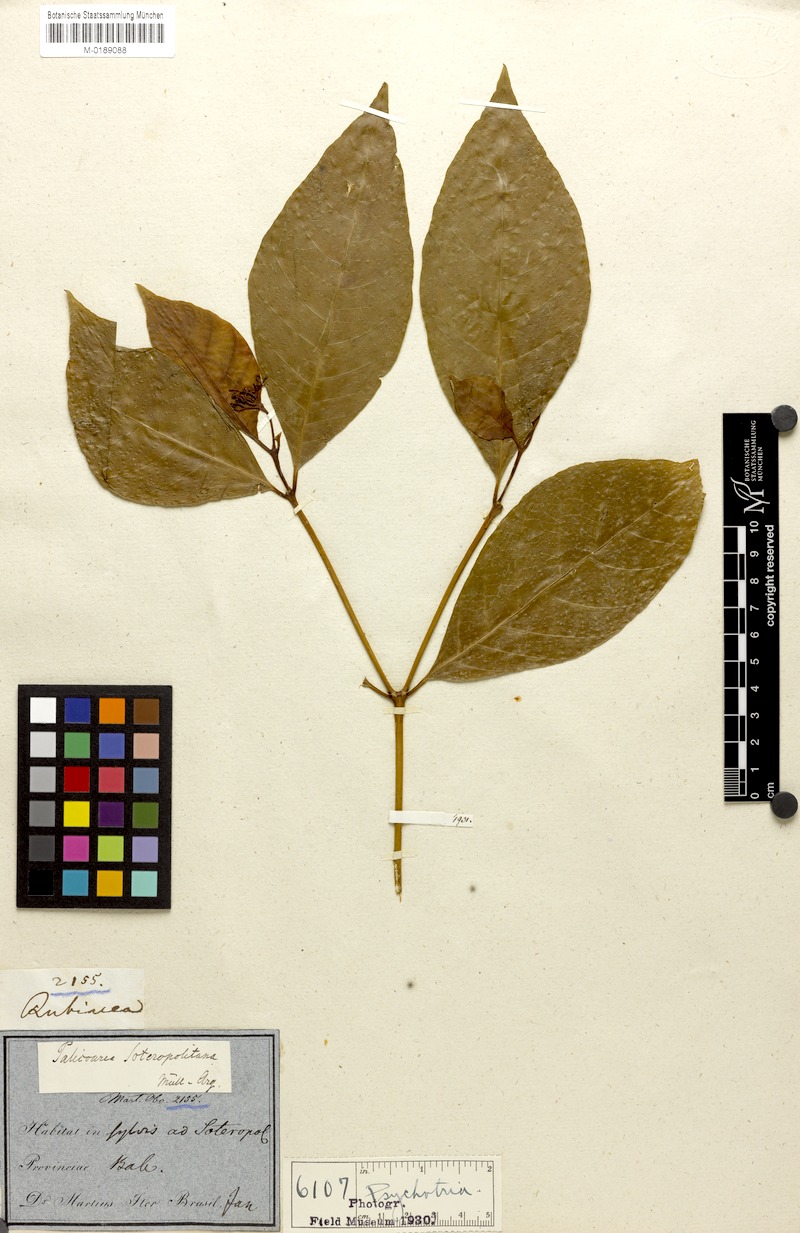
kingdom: Plantae
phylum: Tracheophyta
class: Magnoliopsida
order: Gentianales
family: Rubiaceae
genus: Psychotria
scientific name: Psychotria soteropolitana
